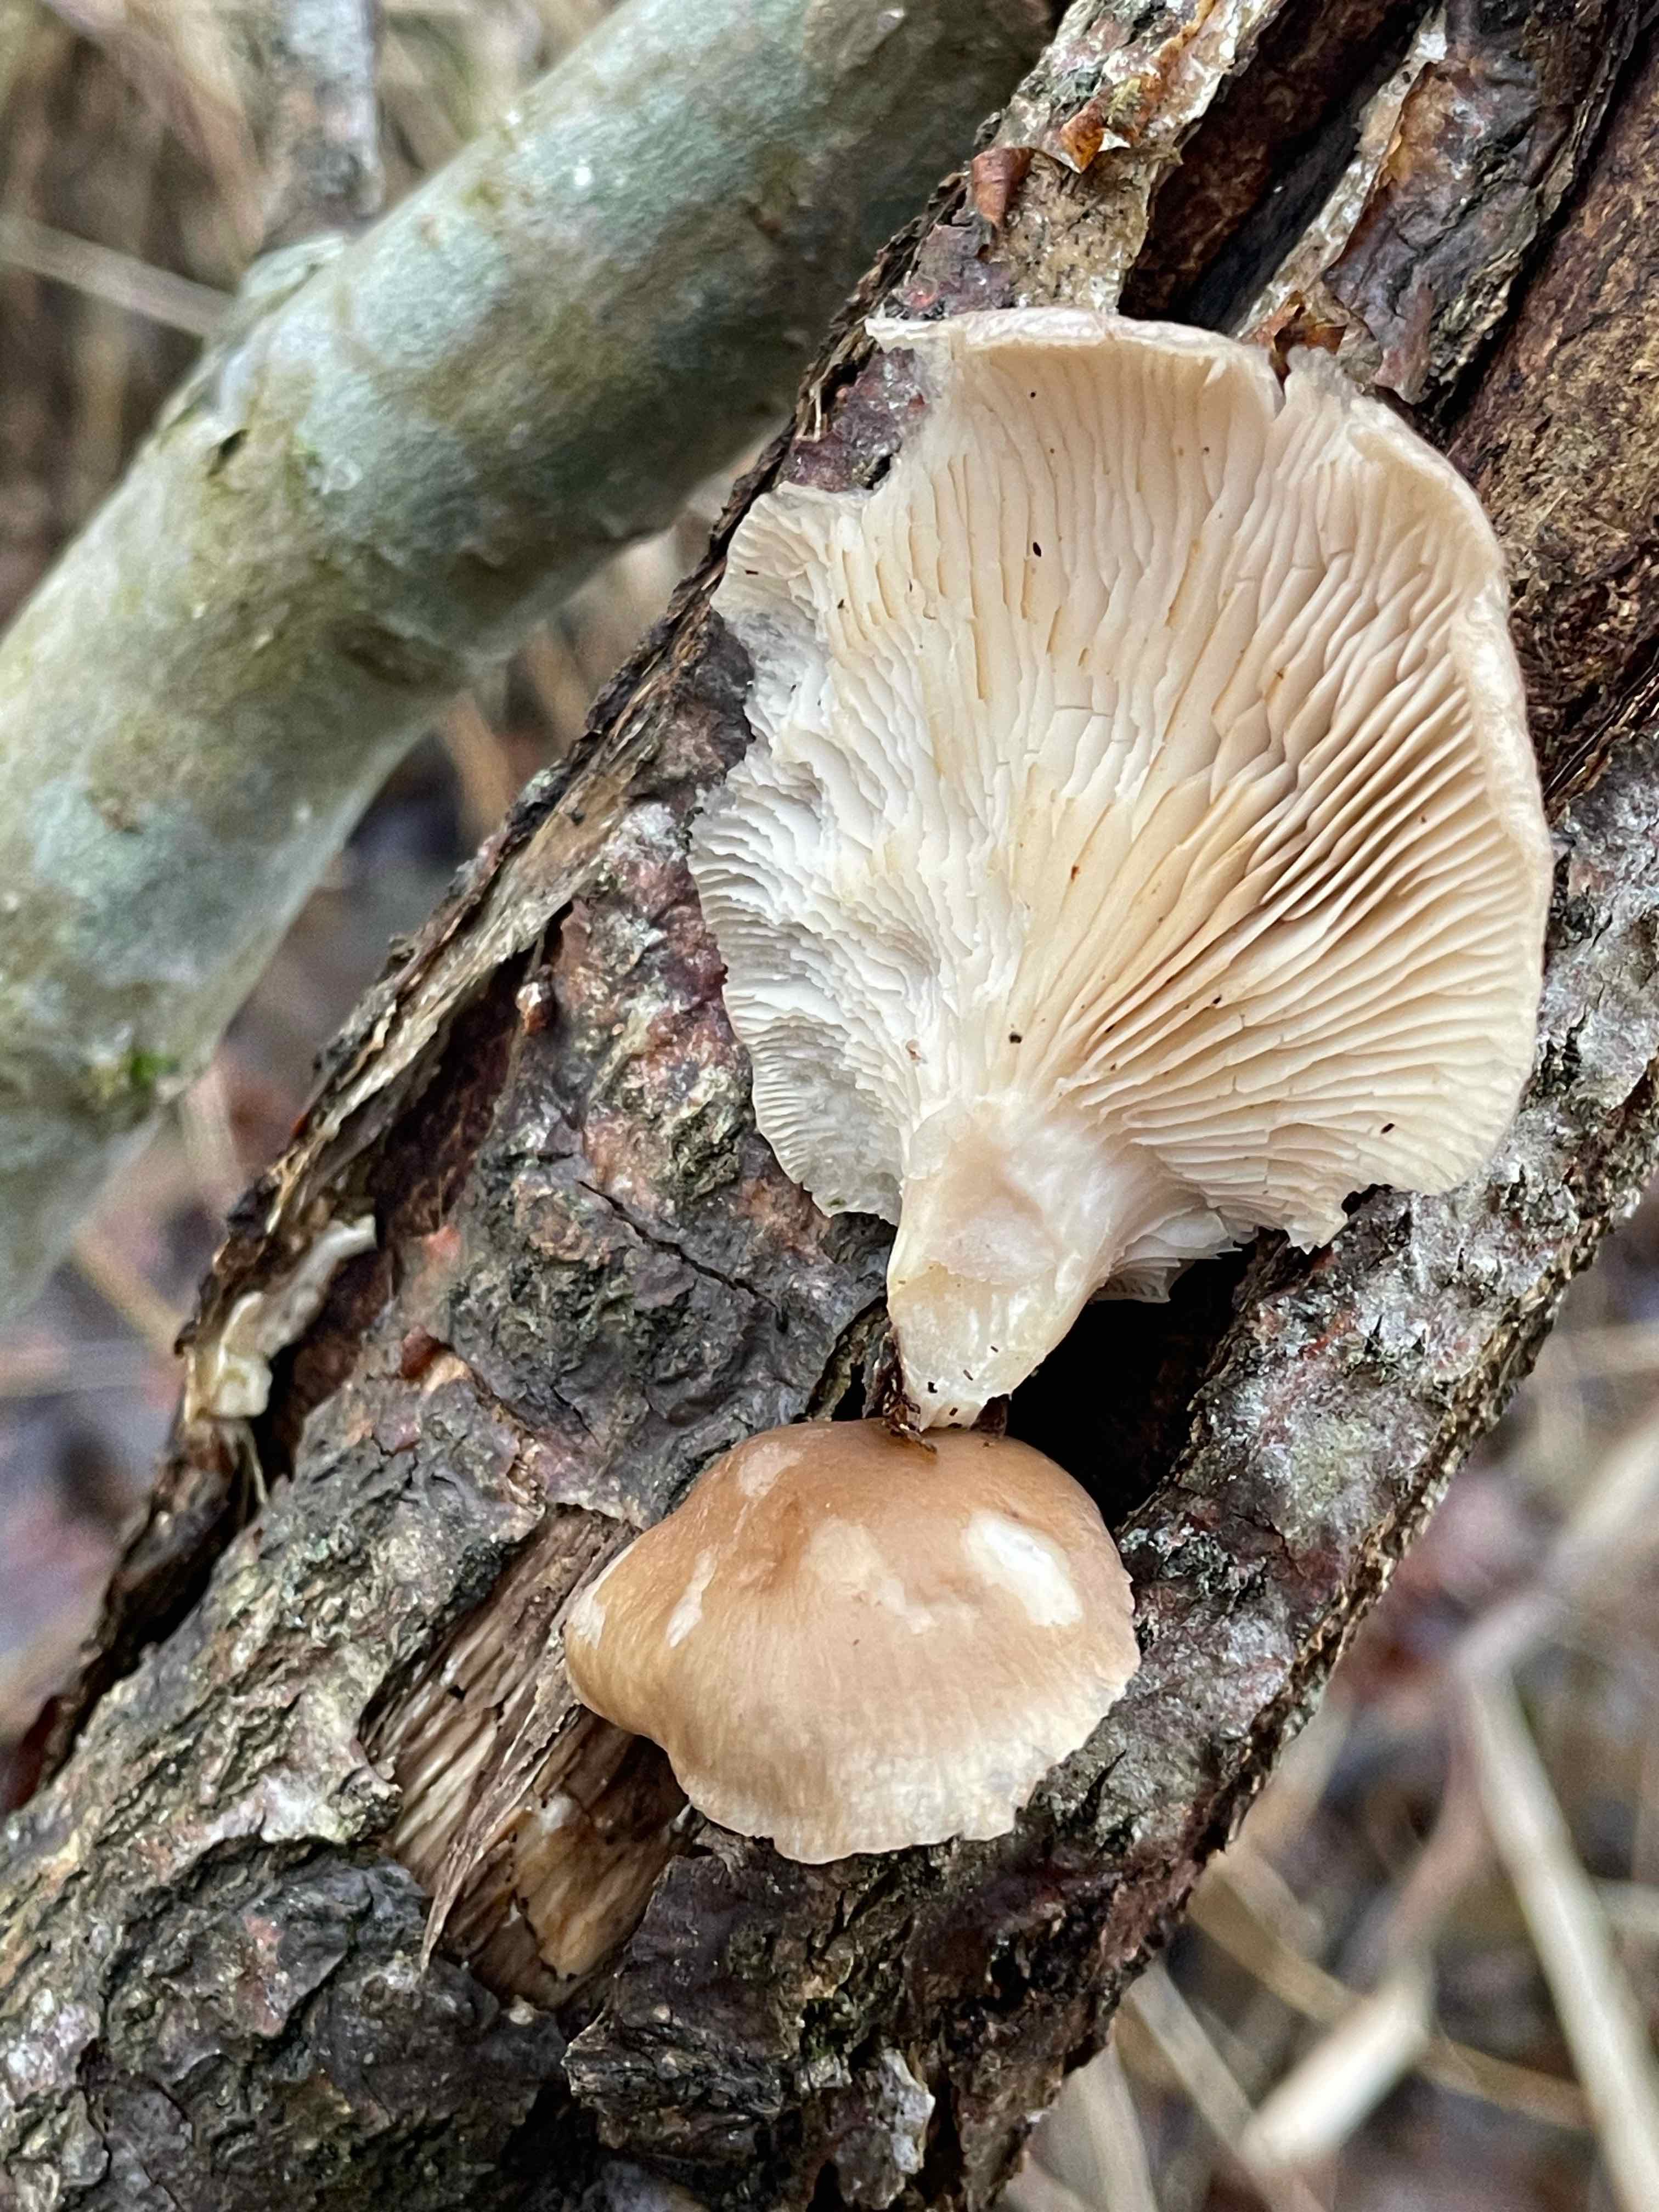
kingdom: Fungi
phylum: Basidiomycota
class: Agaricomycetes
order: Agaricales
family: Pleurotaceae
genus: Pleurotus
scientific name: Pleurotus ostreatus
